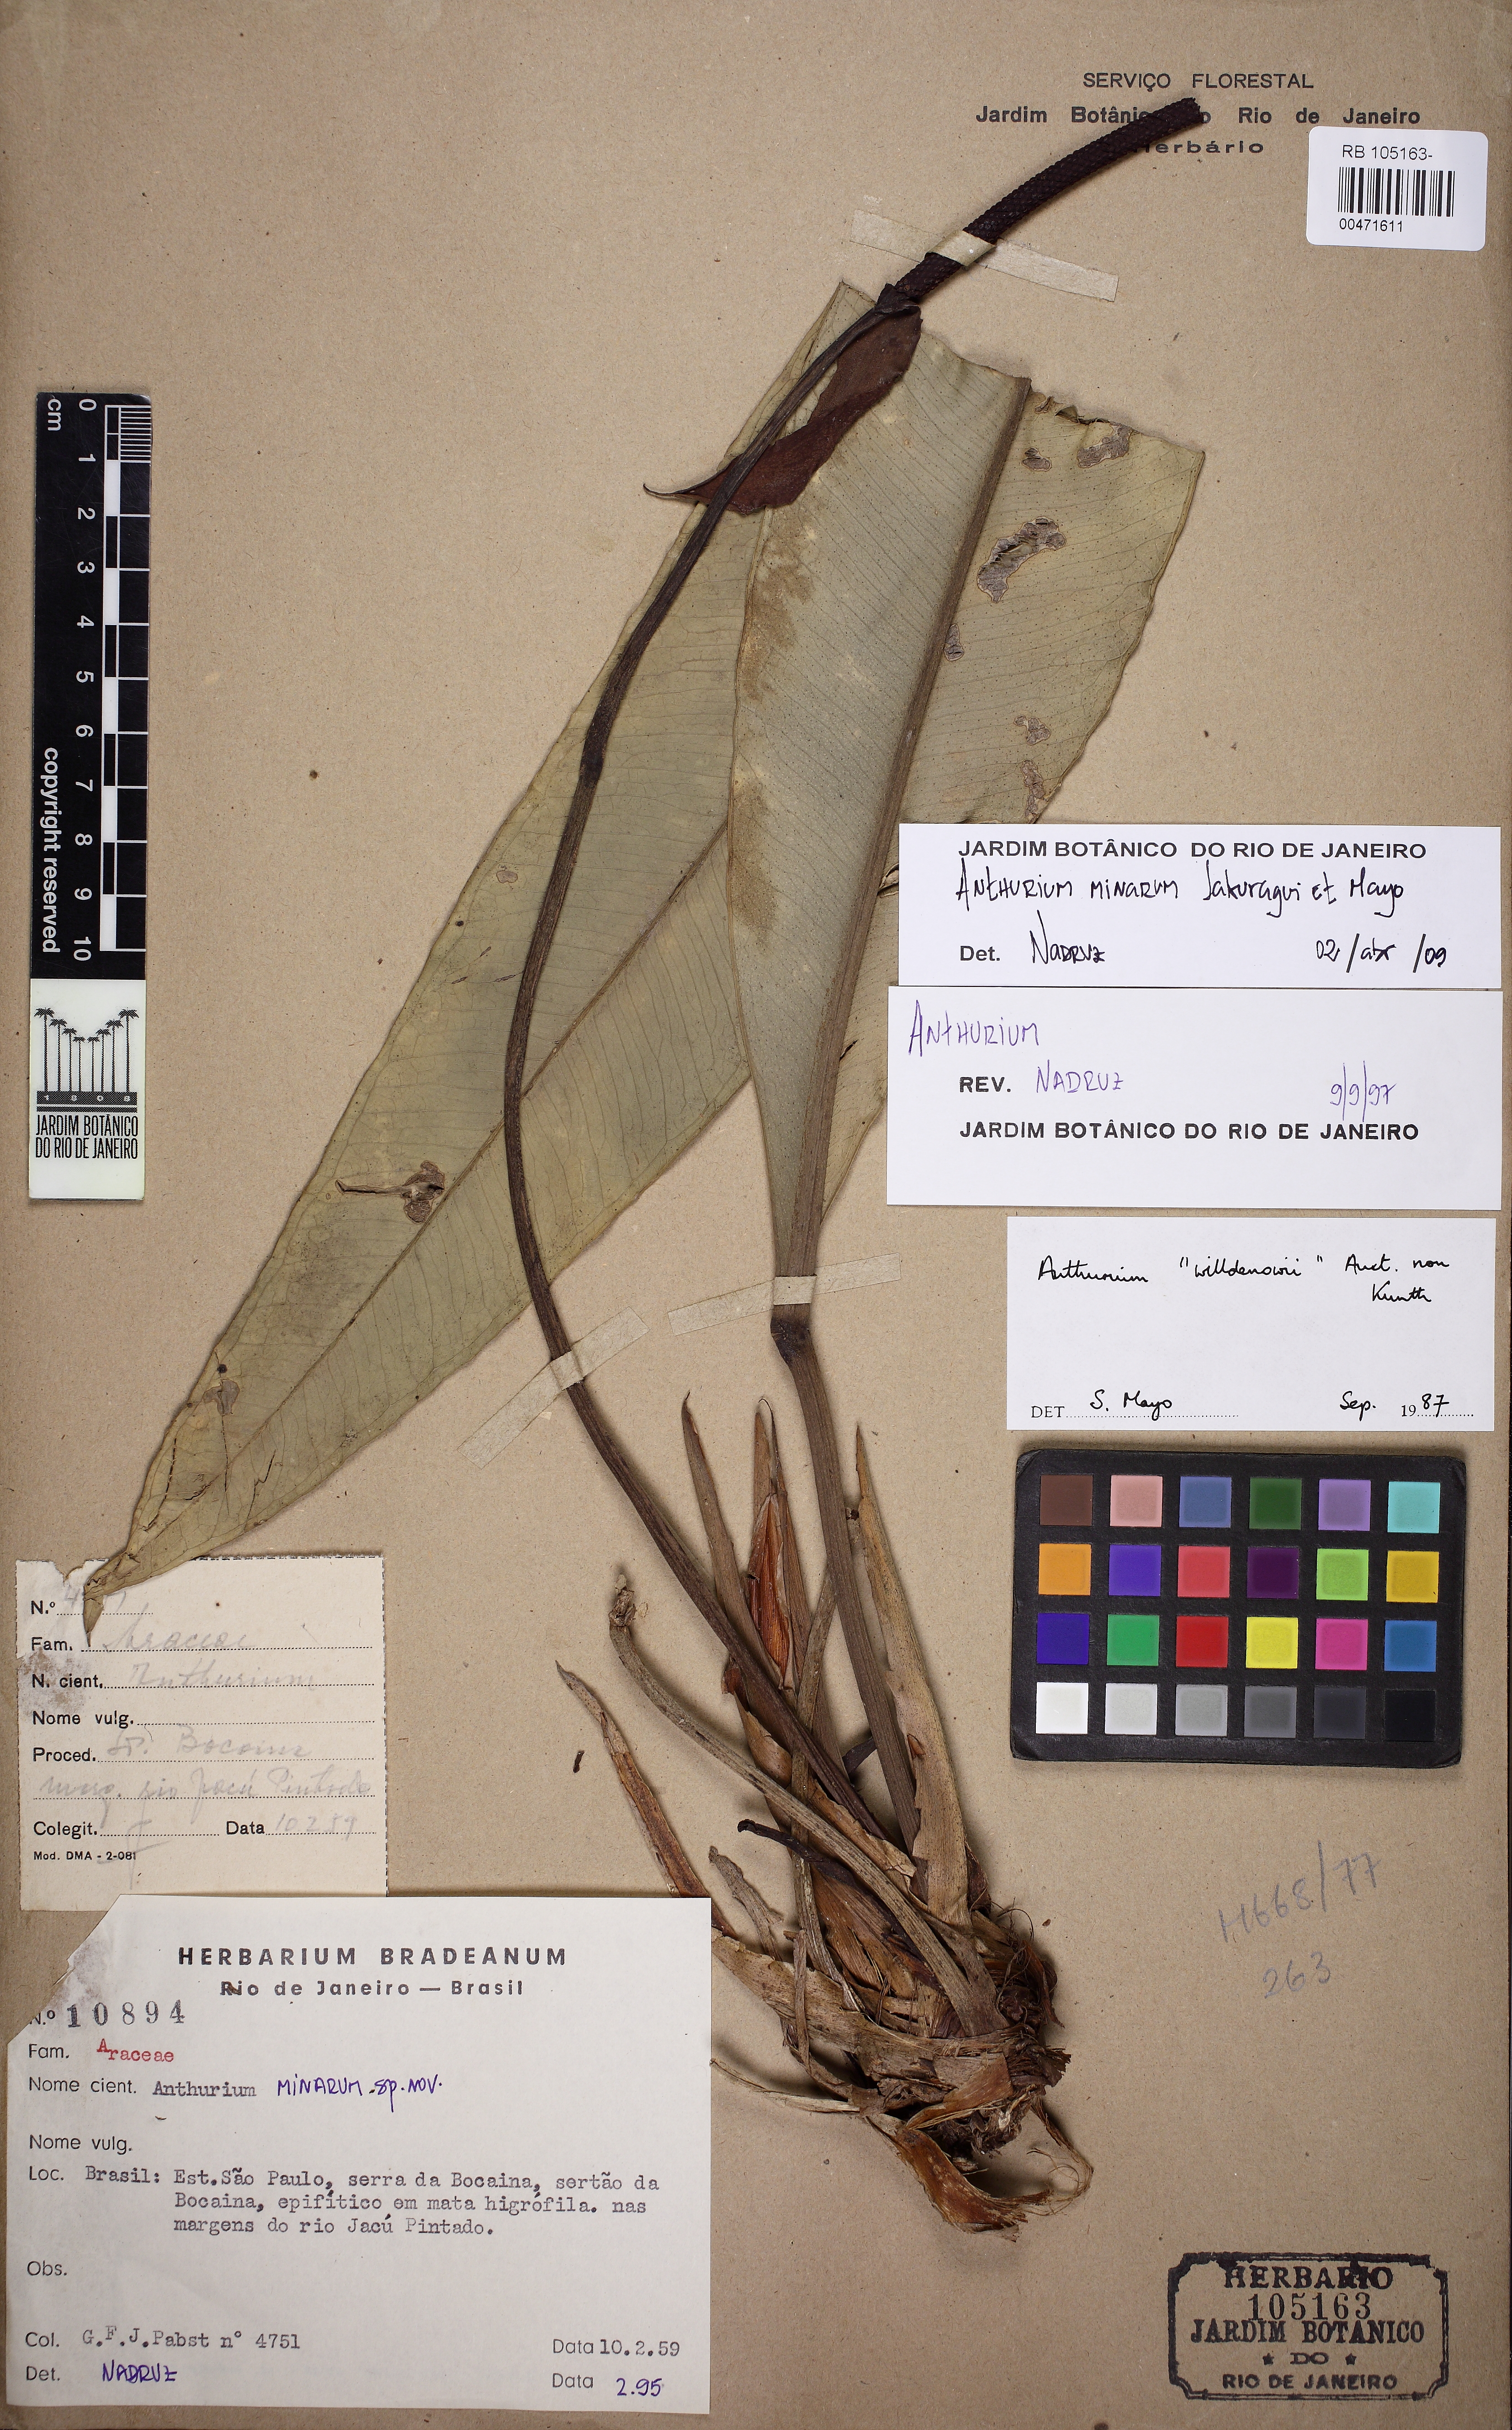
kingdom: Plantae
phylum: Tracheophyta
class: Liliopsida
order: Alismatales
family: Araceae
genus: Anthurium
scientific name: Anthurium minarum
